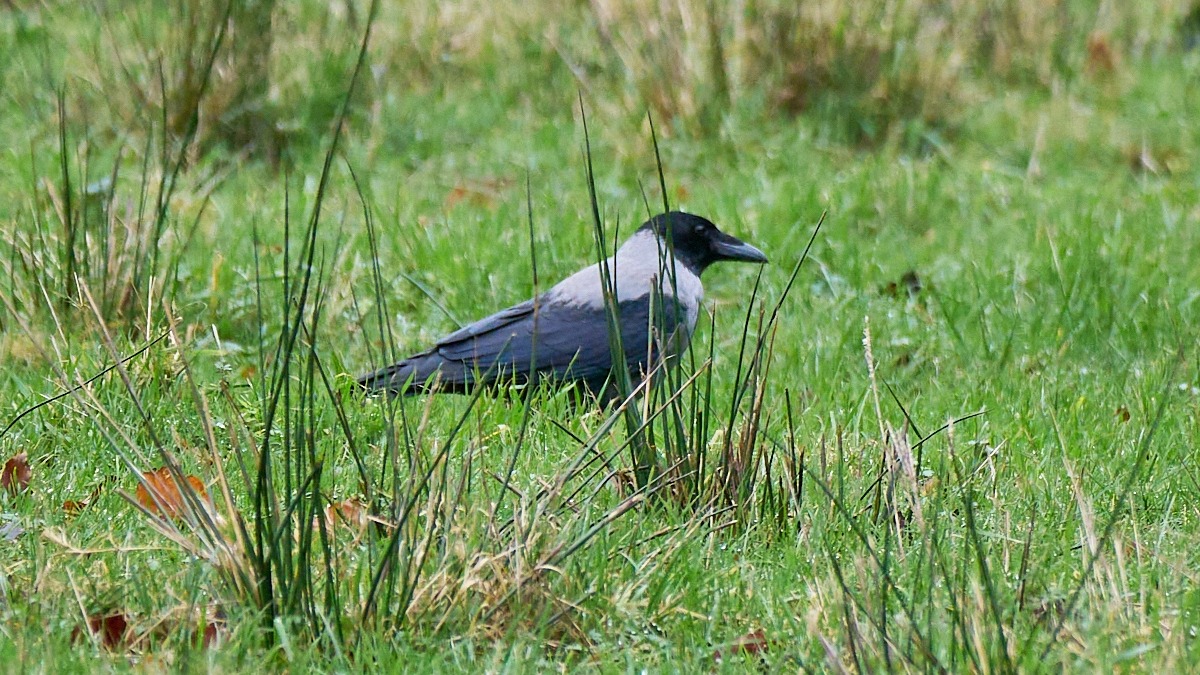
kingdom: Animalia
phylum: Chordata
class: Aves
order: Passeriformes
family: Corvidae
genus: Corvus
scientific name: Corvus cornix
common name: Gråkrage
